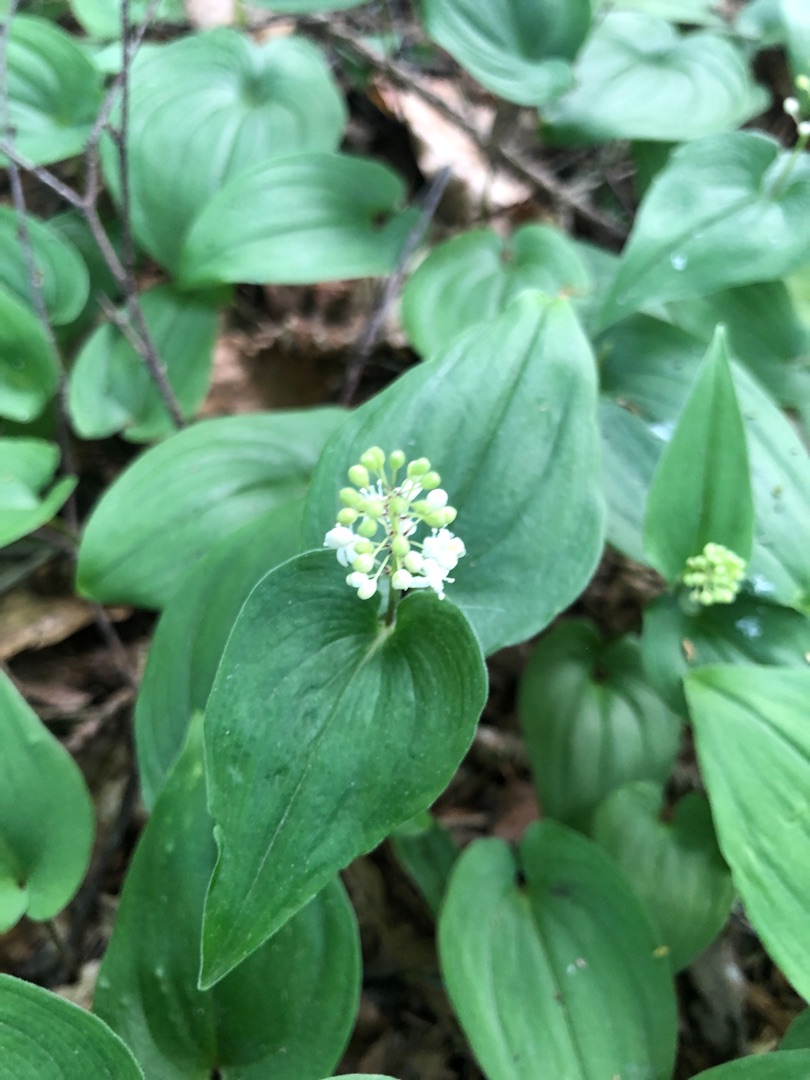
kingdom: Plantae
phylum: Tracheophyta
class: Liliopsida
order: Asparagales
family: Asparagaceae
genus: Maianthemum
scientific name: Maianthemum bifolium
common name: Majblomst
